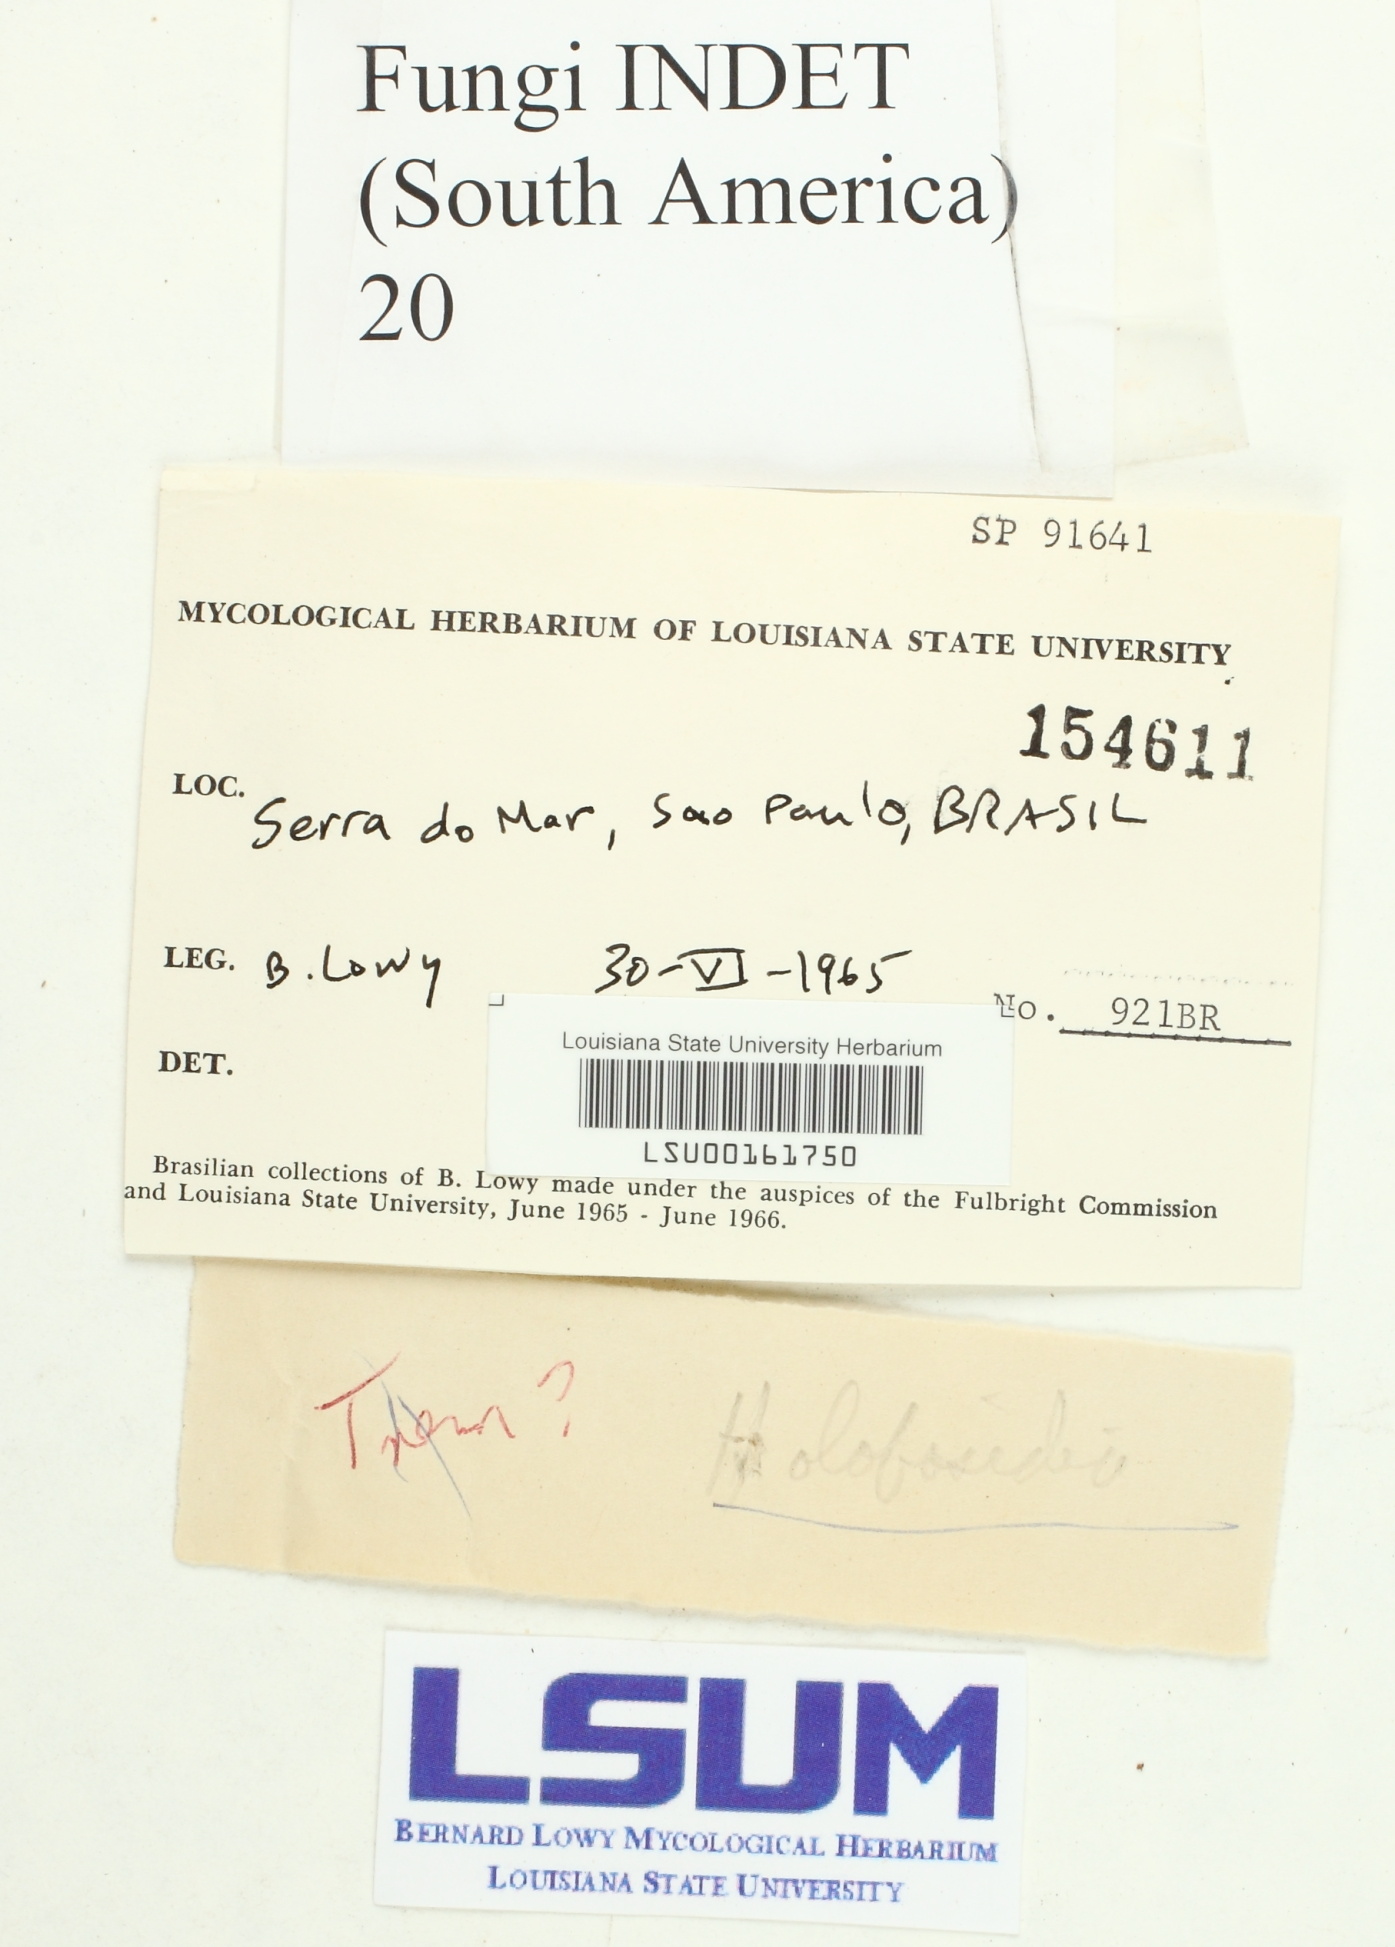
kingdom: Fungi
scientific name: Fungi
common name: Fungi
